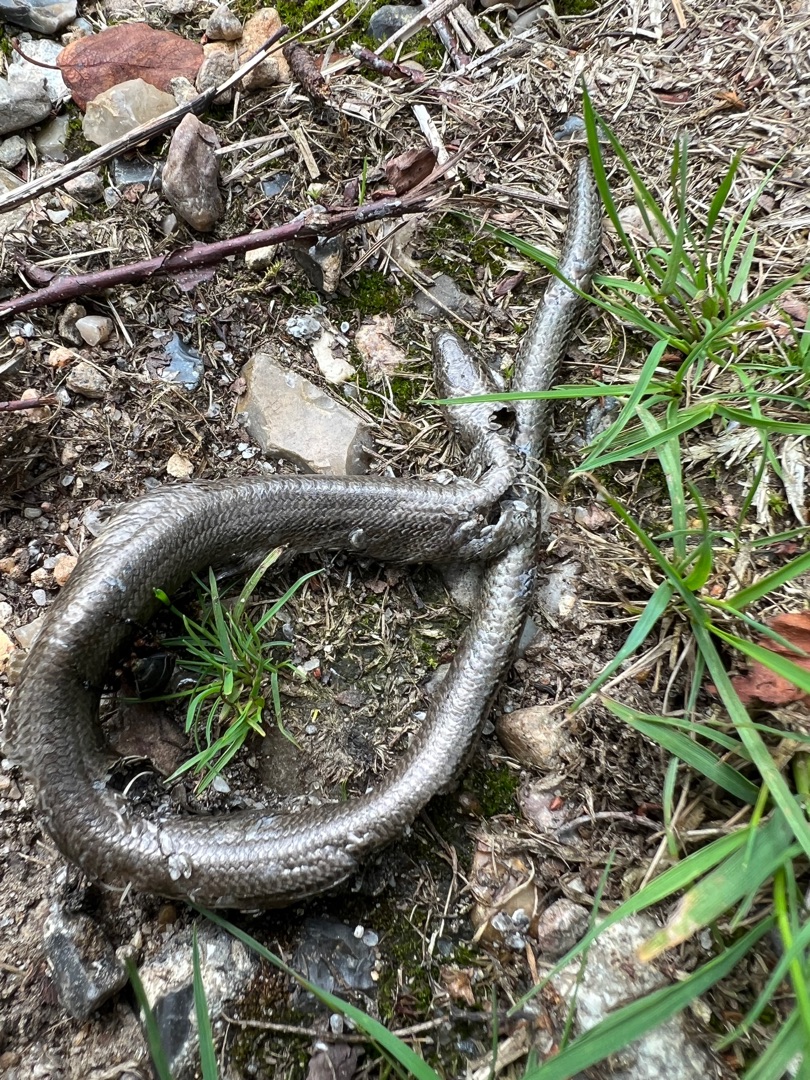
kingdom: Animalia
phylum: Chordata
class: Squamata
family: Anguidae
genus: Anguis
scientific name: Anguis fragilis
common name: Stålorm
